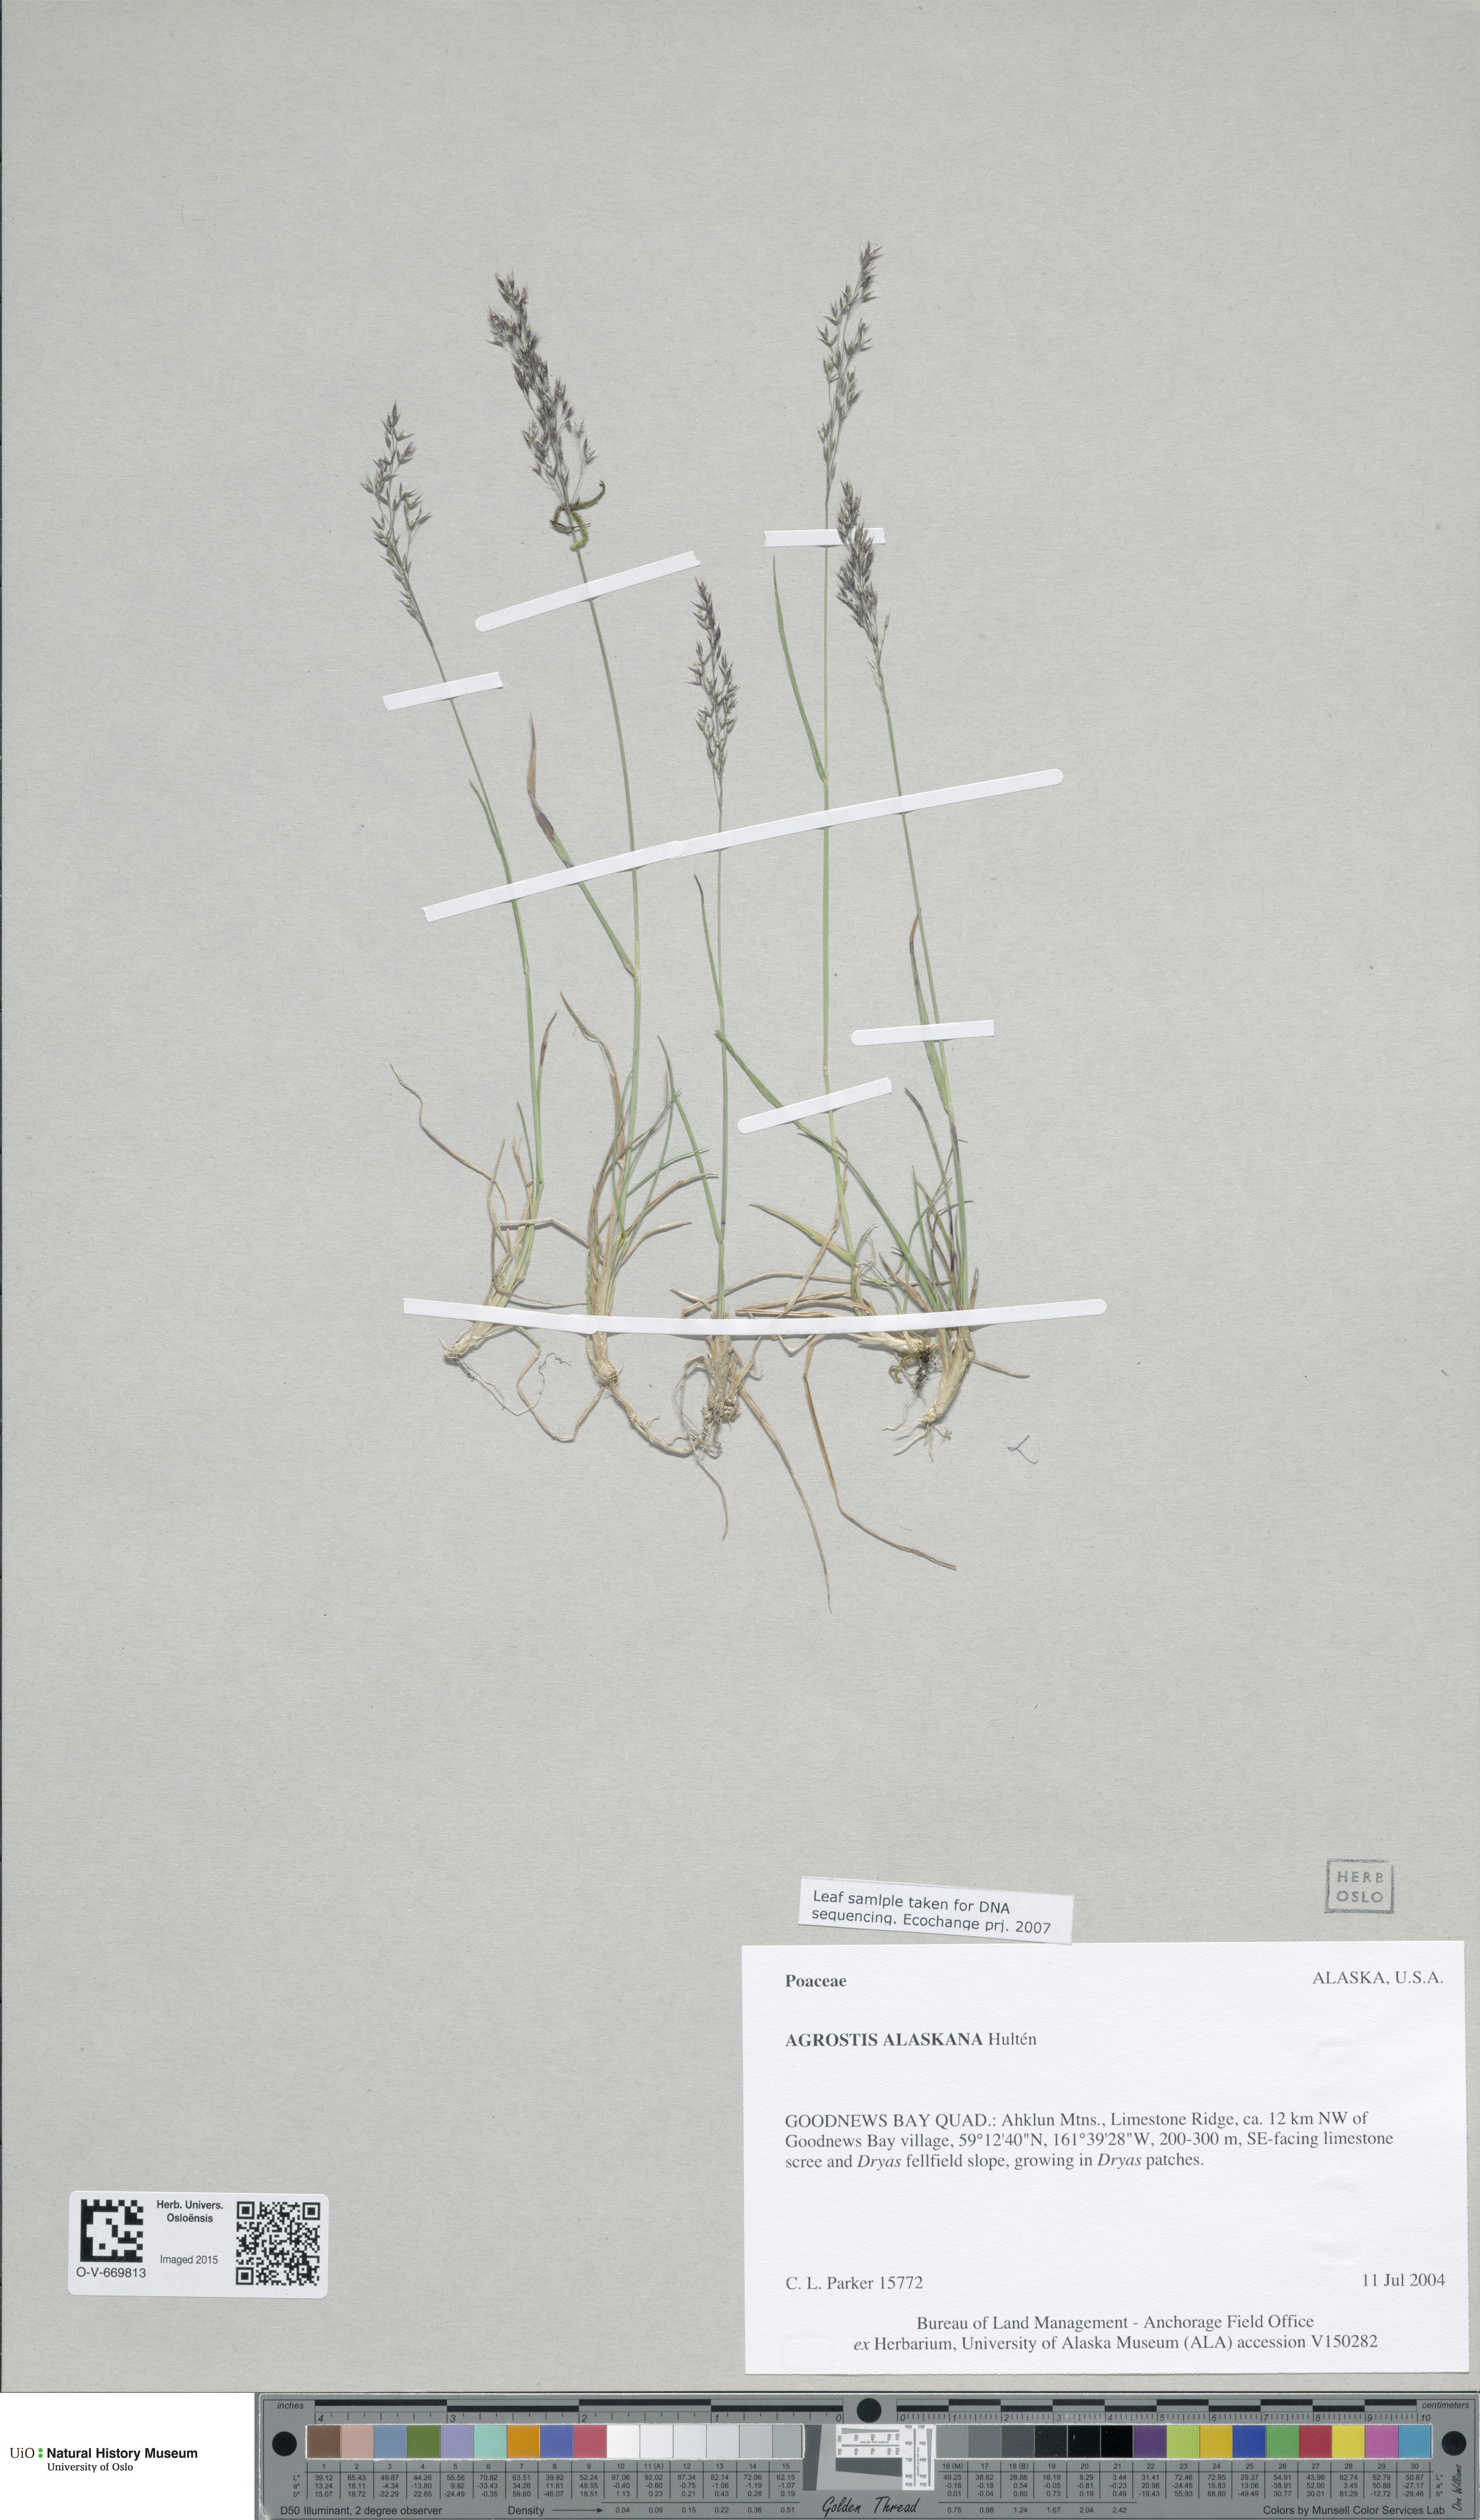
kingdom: Plantae
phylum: Tracheophyta
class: Liliopsida
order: Poales
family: Poaceae
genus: Agrostis
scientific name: Agrostis exarata
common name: Spike bent
